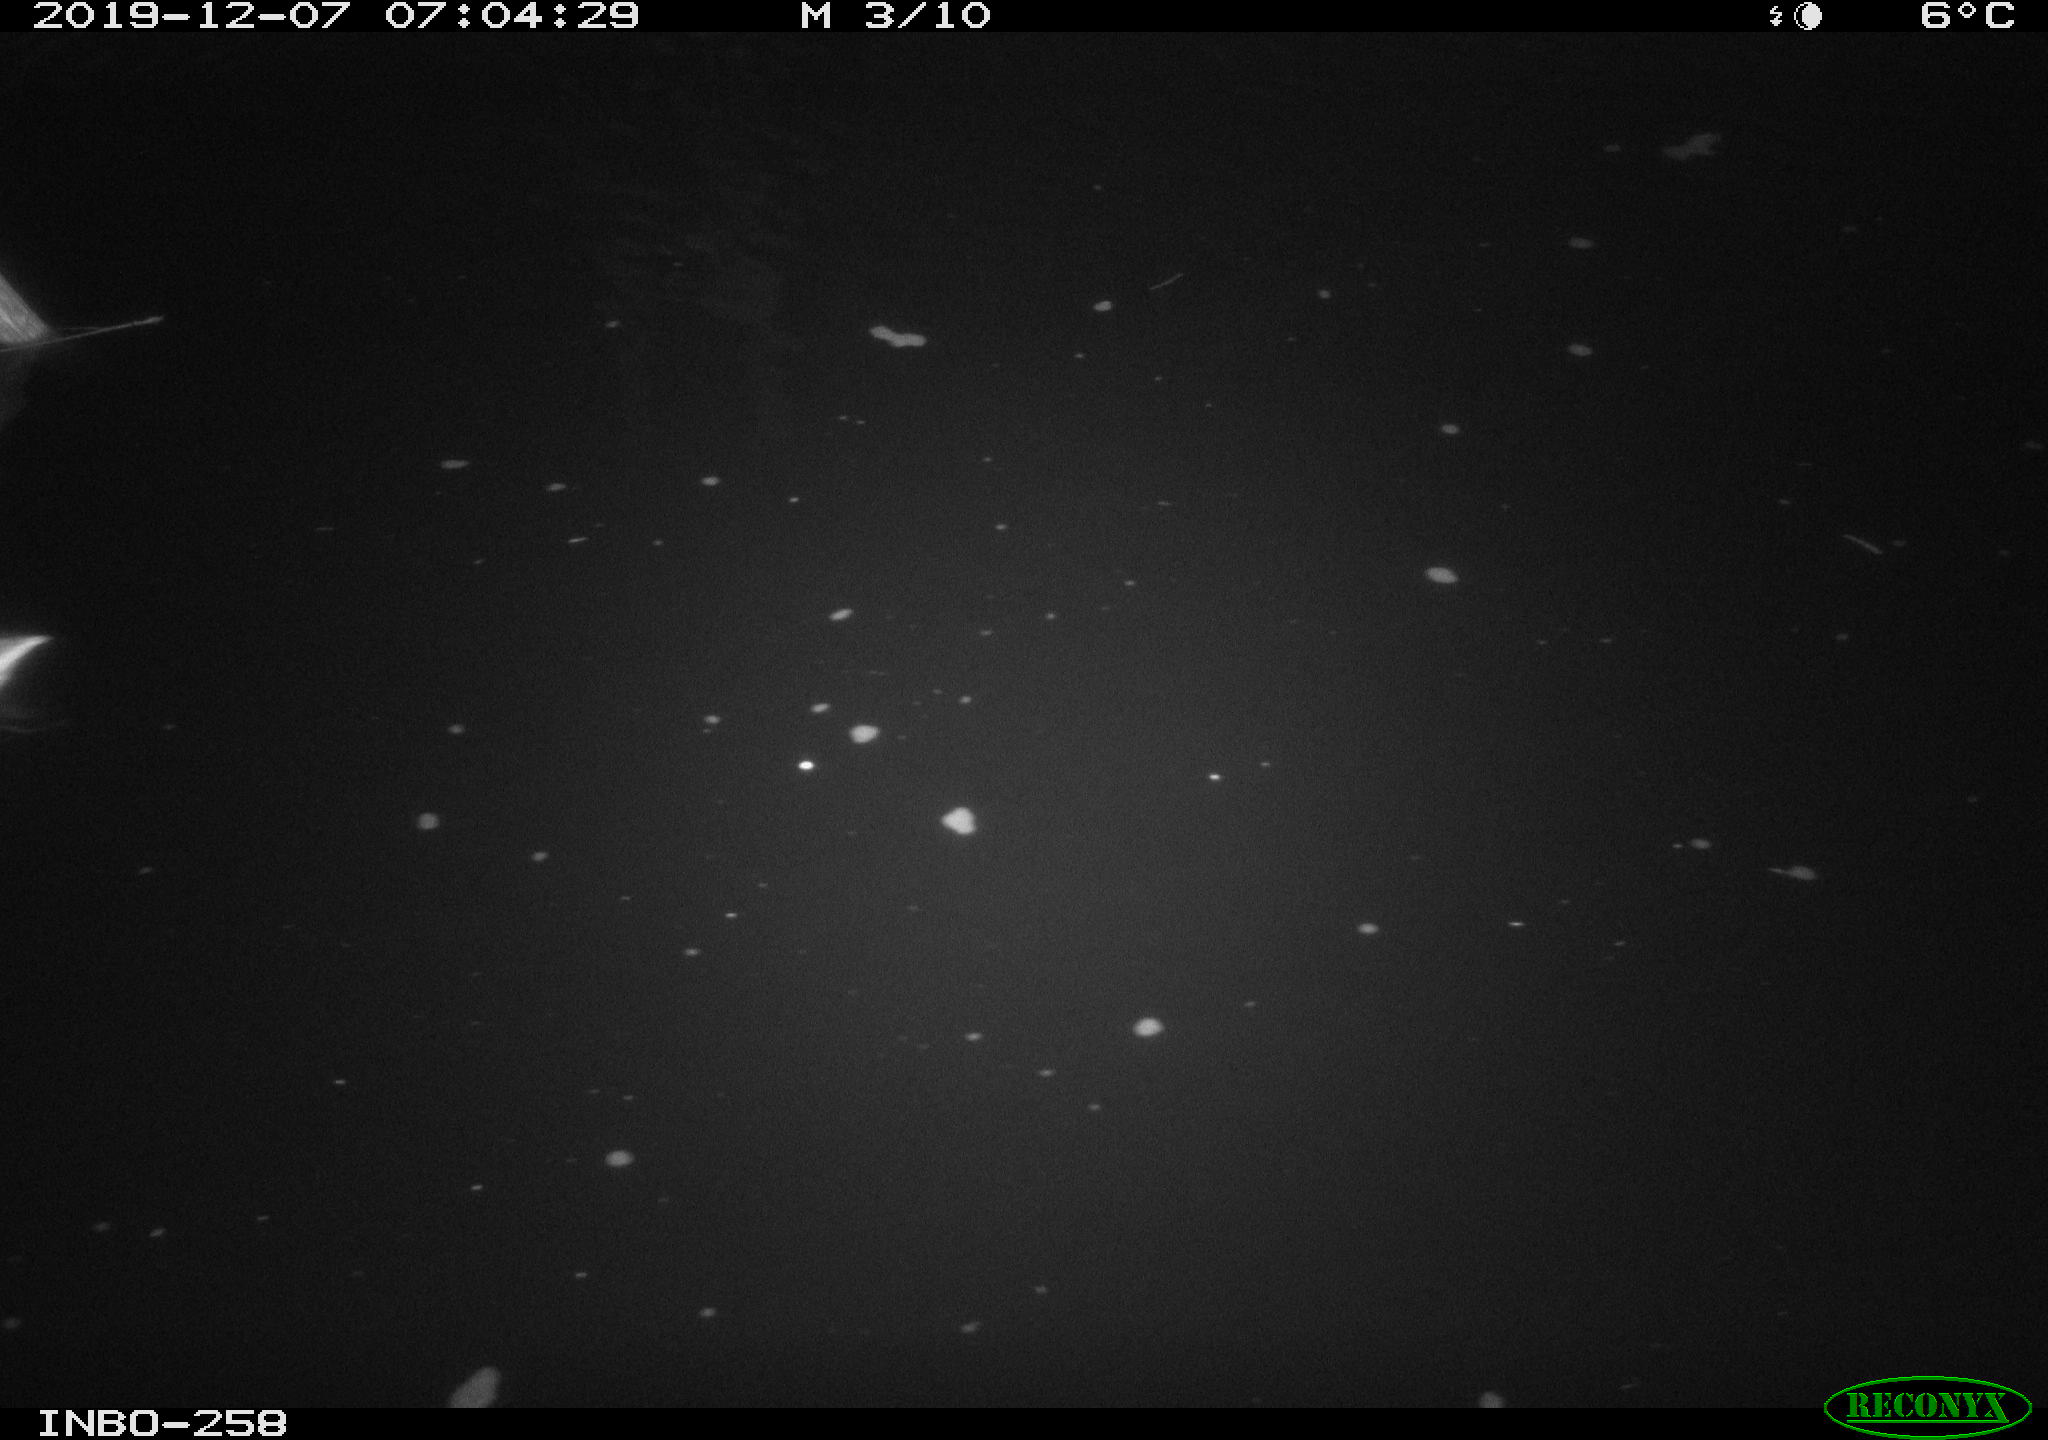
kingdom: Animalia
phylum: Chordata
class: Aves
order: Anseriformes
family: Anatidae
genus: Anas
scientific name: Anas platyrhynchos
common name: Mallard
